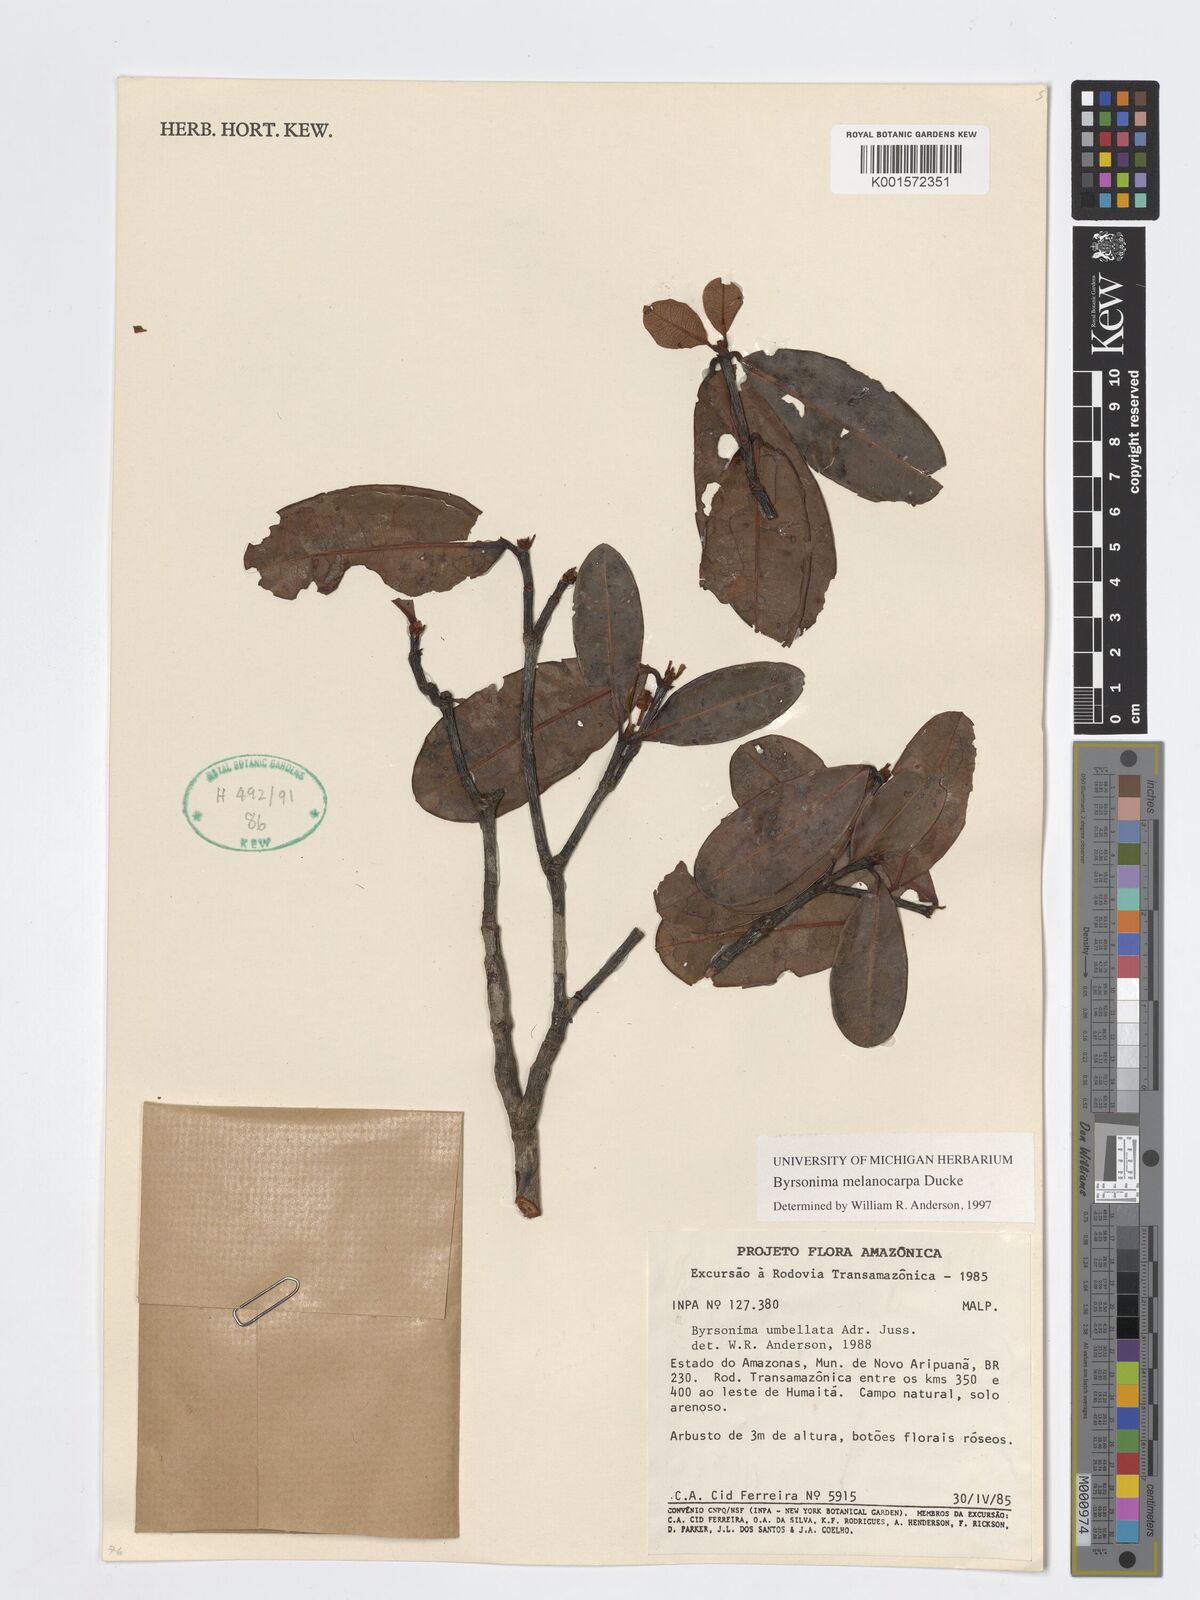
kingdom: Plantae
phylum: Tracheophyta
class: Magnoliopsida
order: Malpighiales
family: Malpighiaceae
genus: Byrsonima
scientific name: Byrsonima melanocarpa
